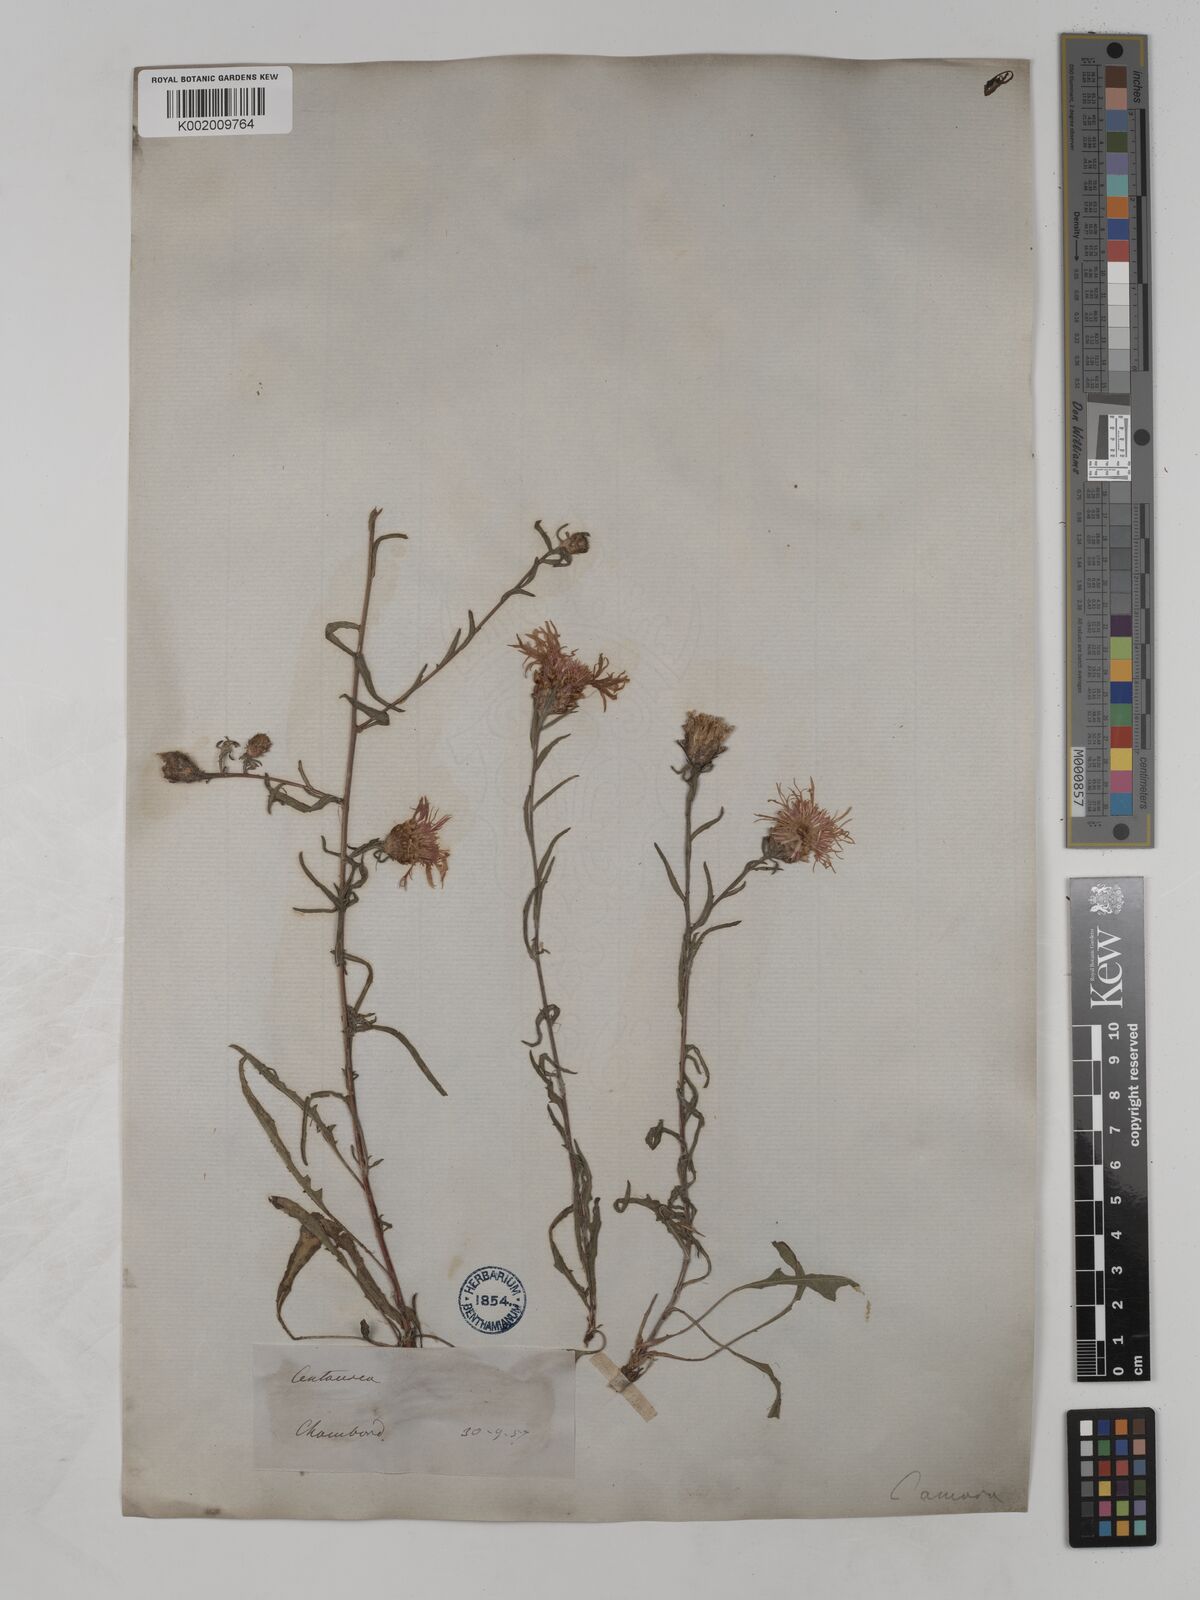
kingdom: Plantae
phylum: Tracheophyta
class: Magnoliopsida
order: Asterales
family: Asteraceae
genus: Centaurea
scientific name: Centaurea timbalii
